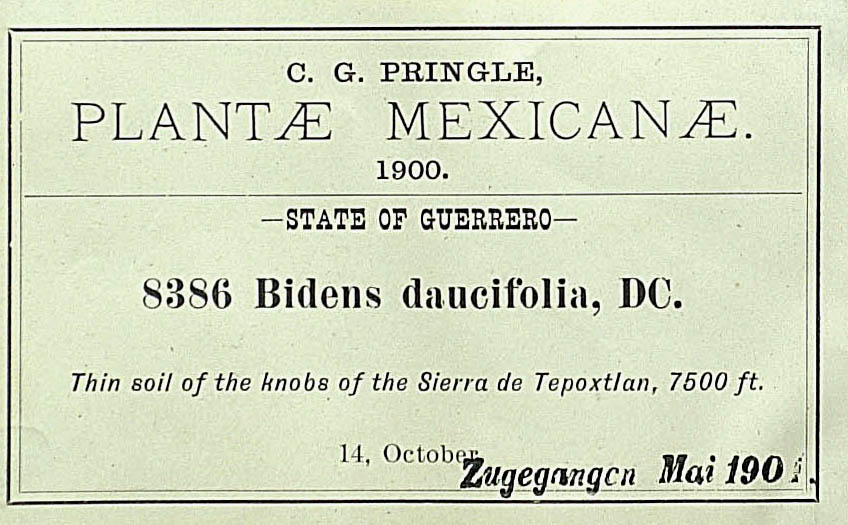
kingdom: Plantae
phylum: Tracheophyta
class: Magnoliopsida
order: Asterales
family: Asteraceae
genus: Bidens
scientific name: Bidens ocellatus
